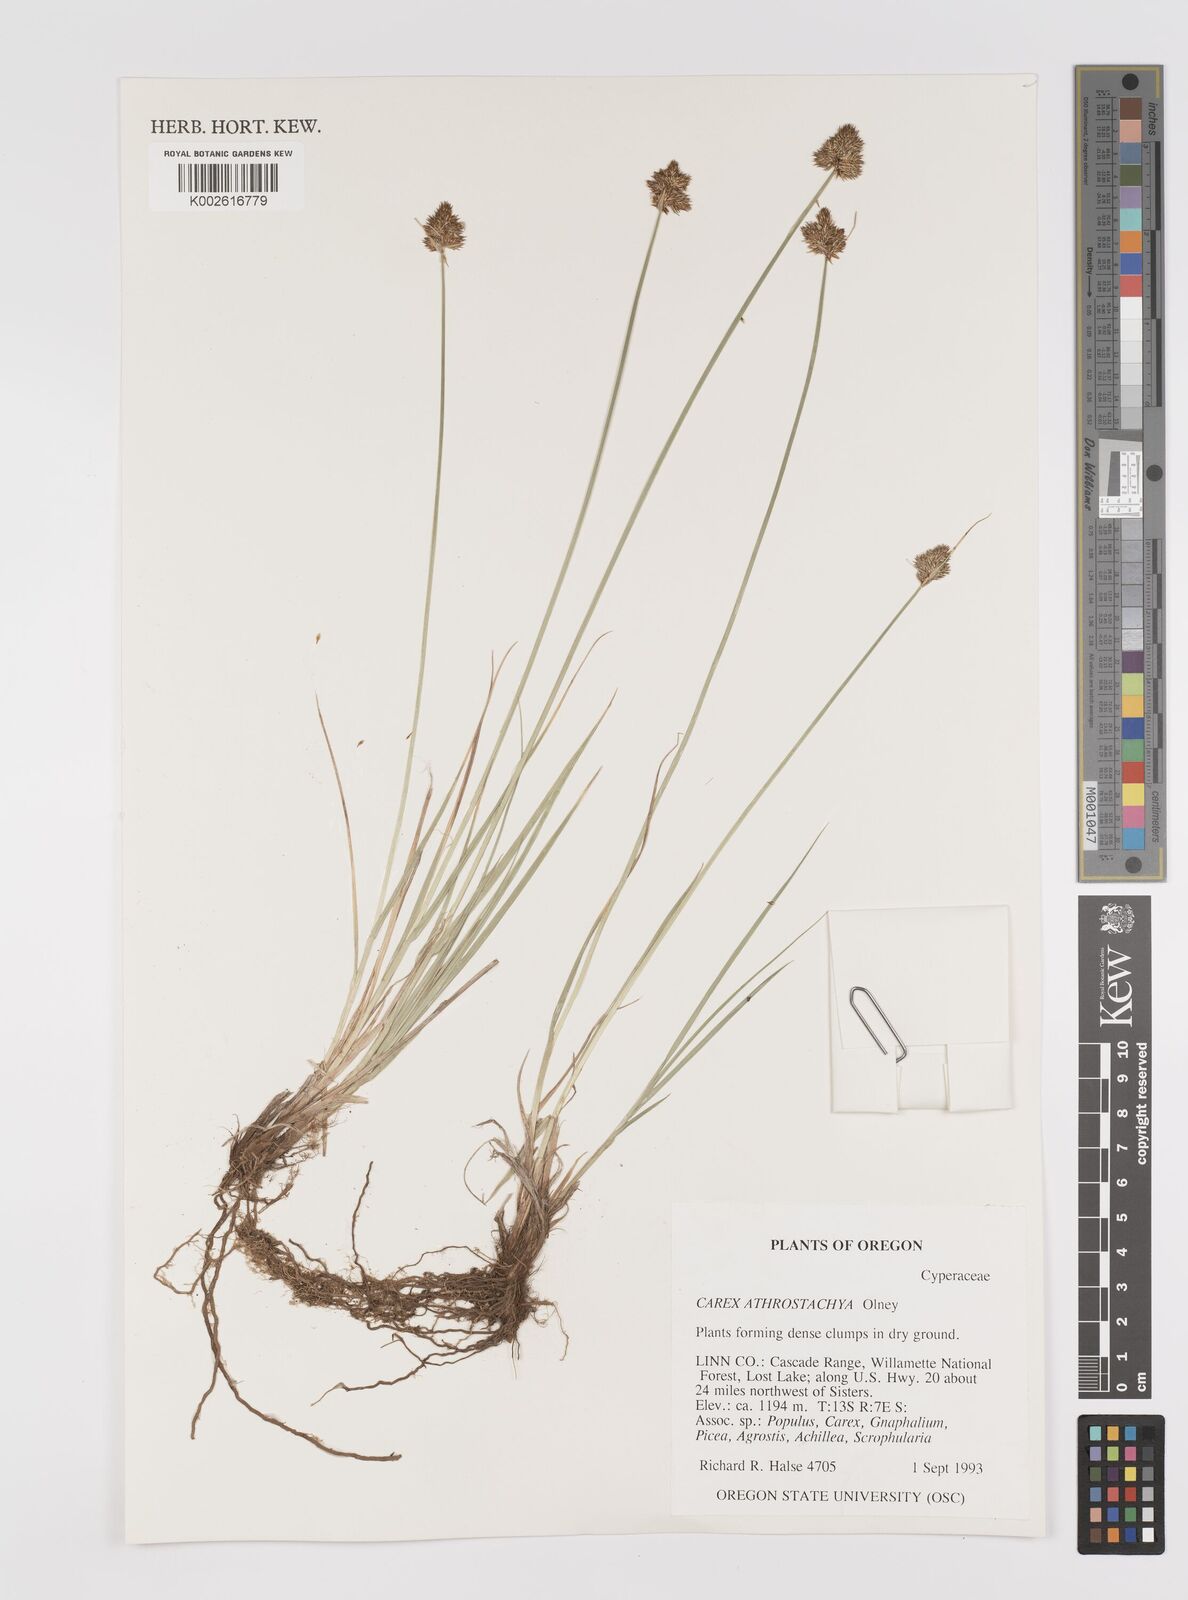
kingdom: Plantae
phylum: Tracheophyta
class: Liliopsida
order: Poales
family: Cyperaceae
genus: Carex
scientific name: Carex athrostachya
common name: Slenderbeak sedge
